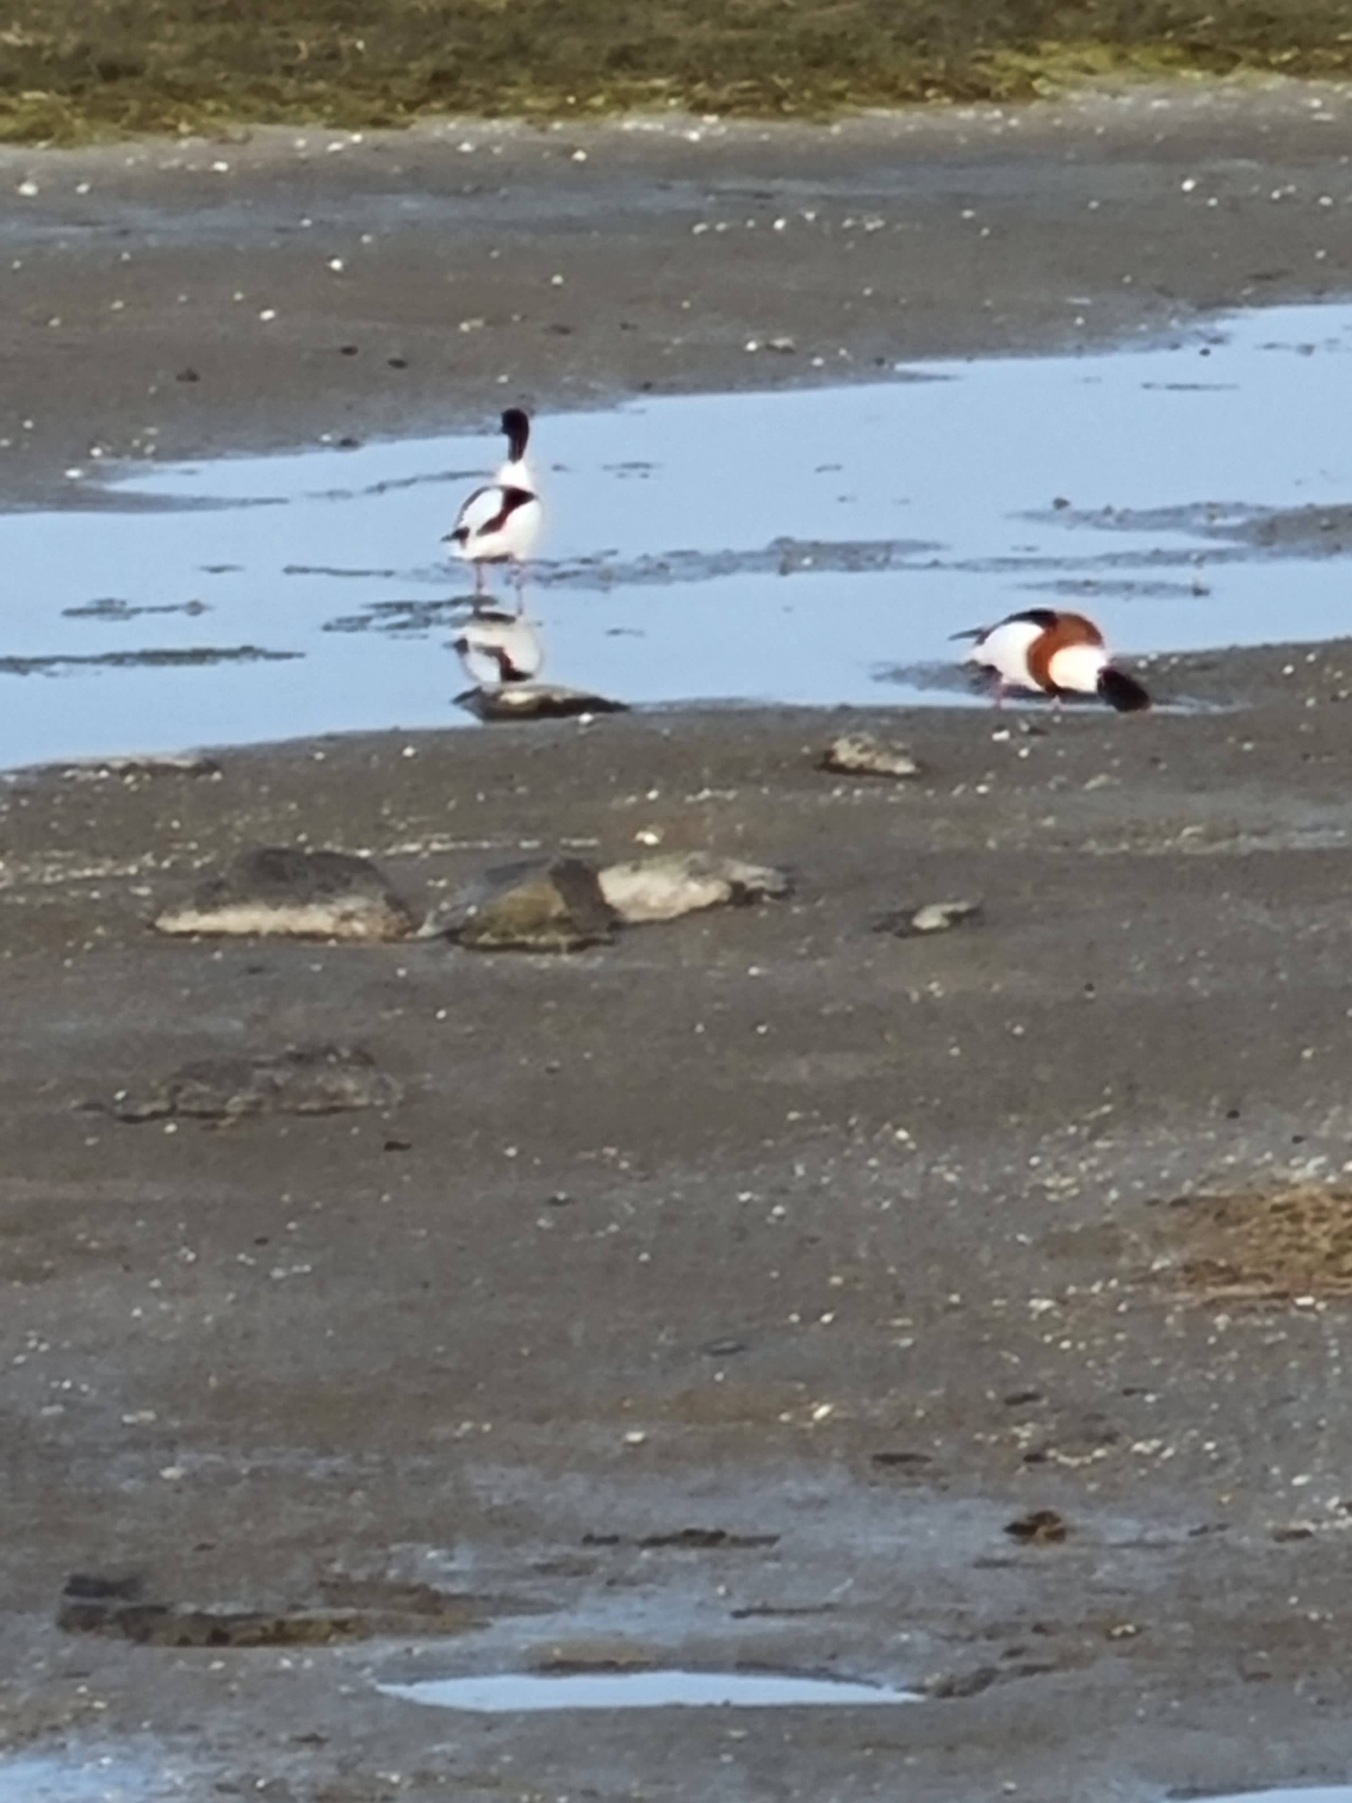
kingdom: Animalia
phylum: Chordata
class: Aves
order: Anseriformes
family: Anatidae
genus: Tadorna
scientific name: Tadorna tadorna
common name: Gravand
